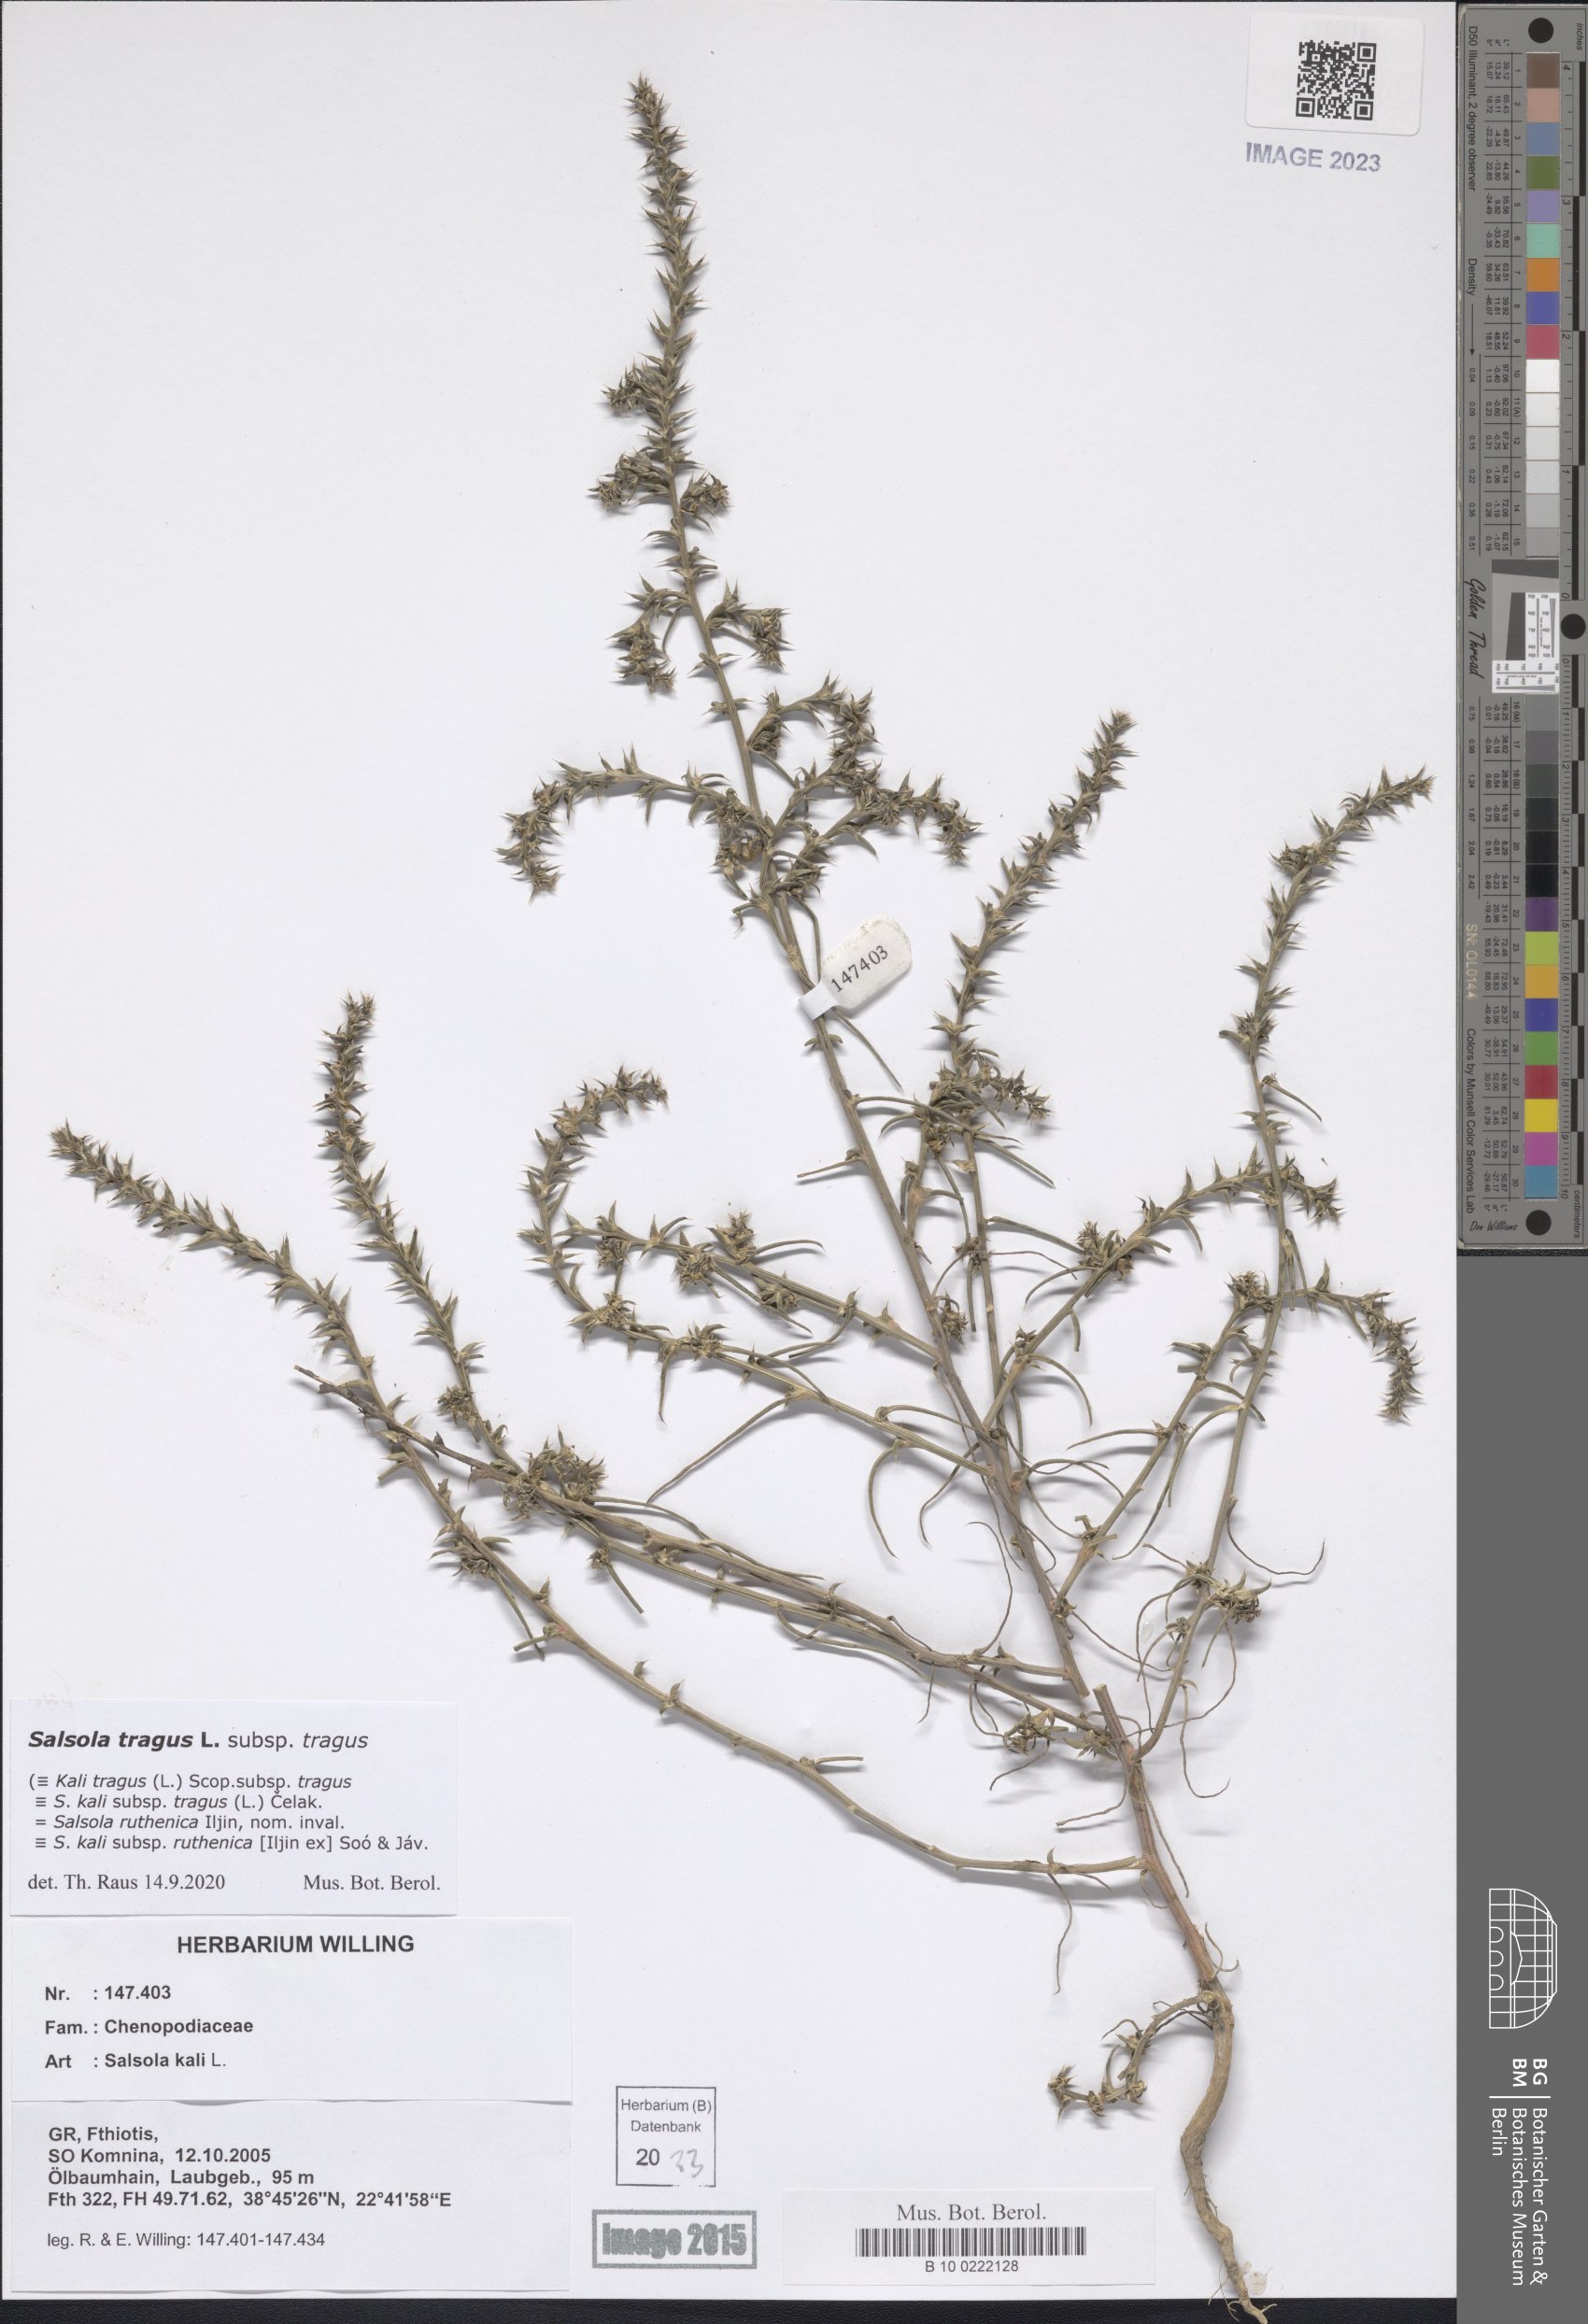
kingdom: Plantae
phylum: Tracheophyta
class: Magnoliopsida
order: Caryophyllales
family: Amaranthaceae
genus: Salsola
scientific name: Salsola tragus
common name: Prickly russian thistle
